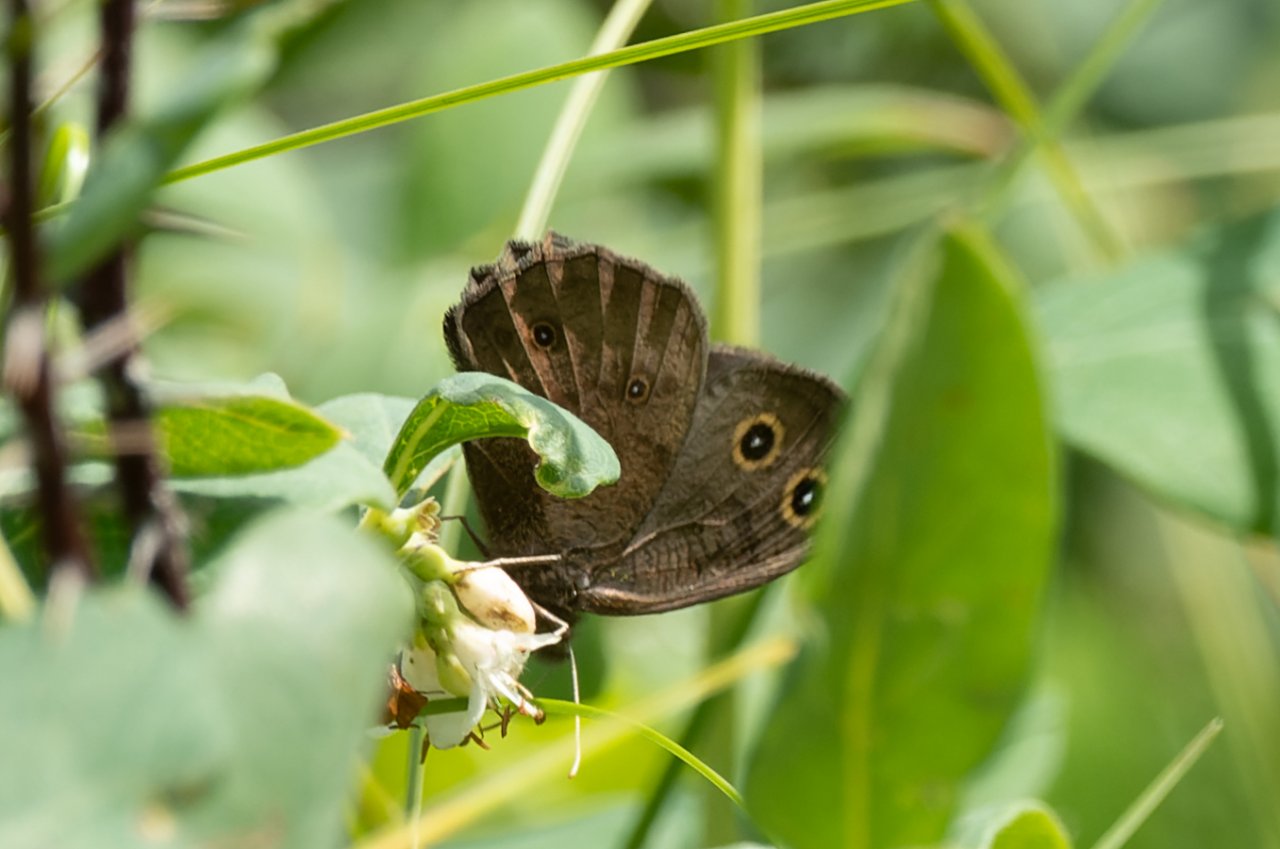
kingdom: Animalia
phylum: Arthropoda
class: Insecta
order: Lepidoptera
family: Nymphalidae
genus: Cercyonis
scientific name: Cercyonis pegala
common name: Common Wood-Nymph
